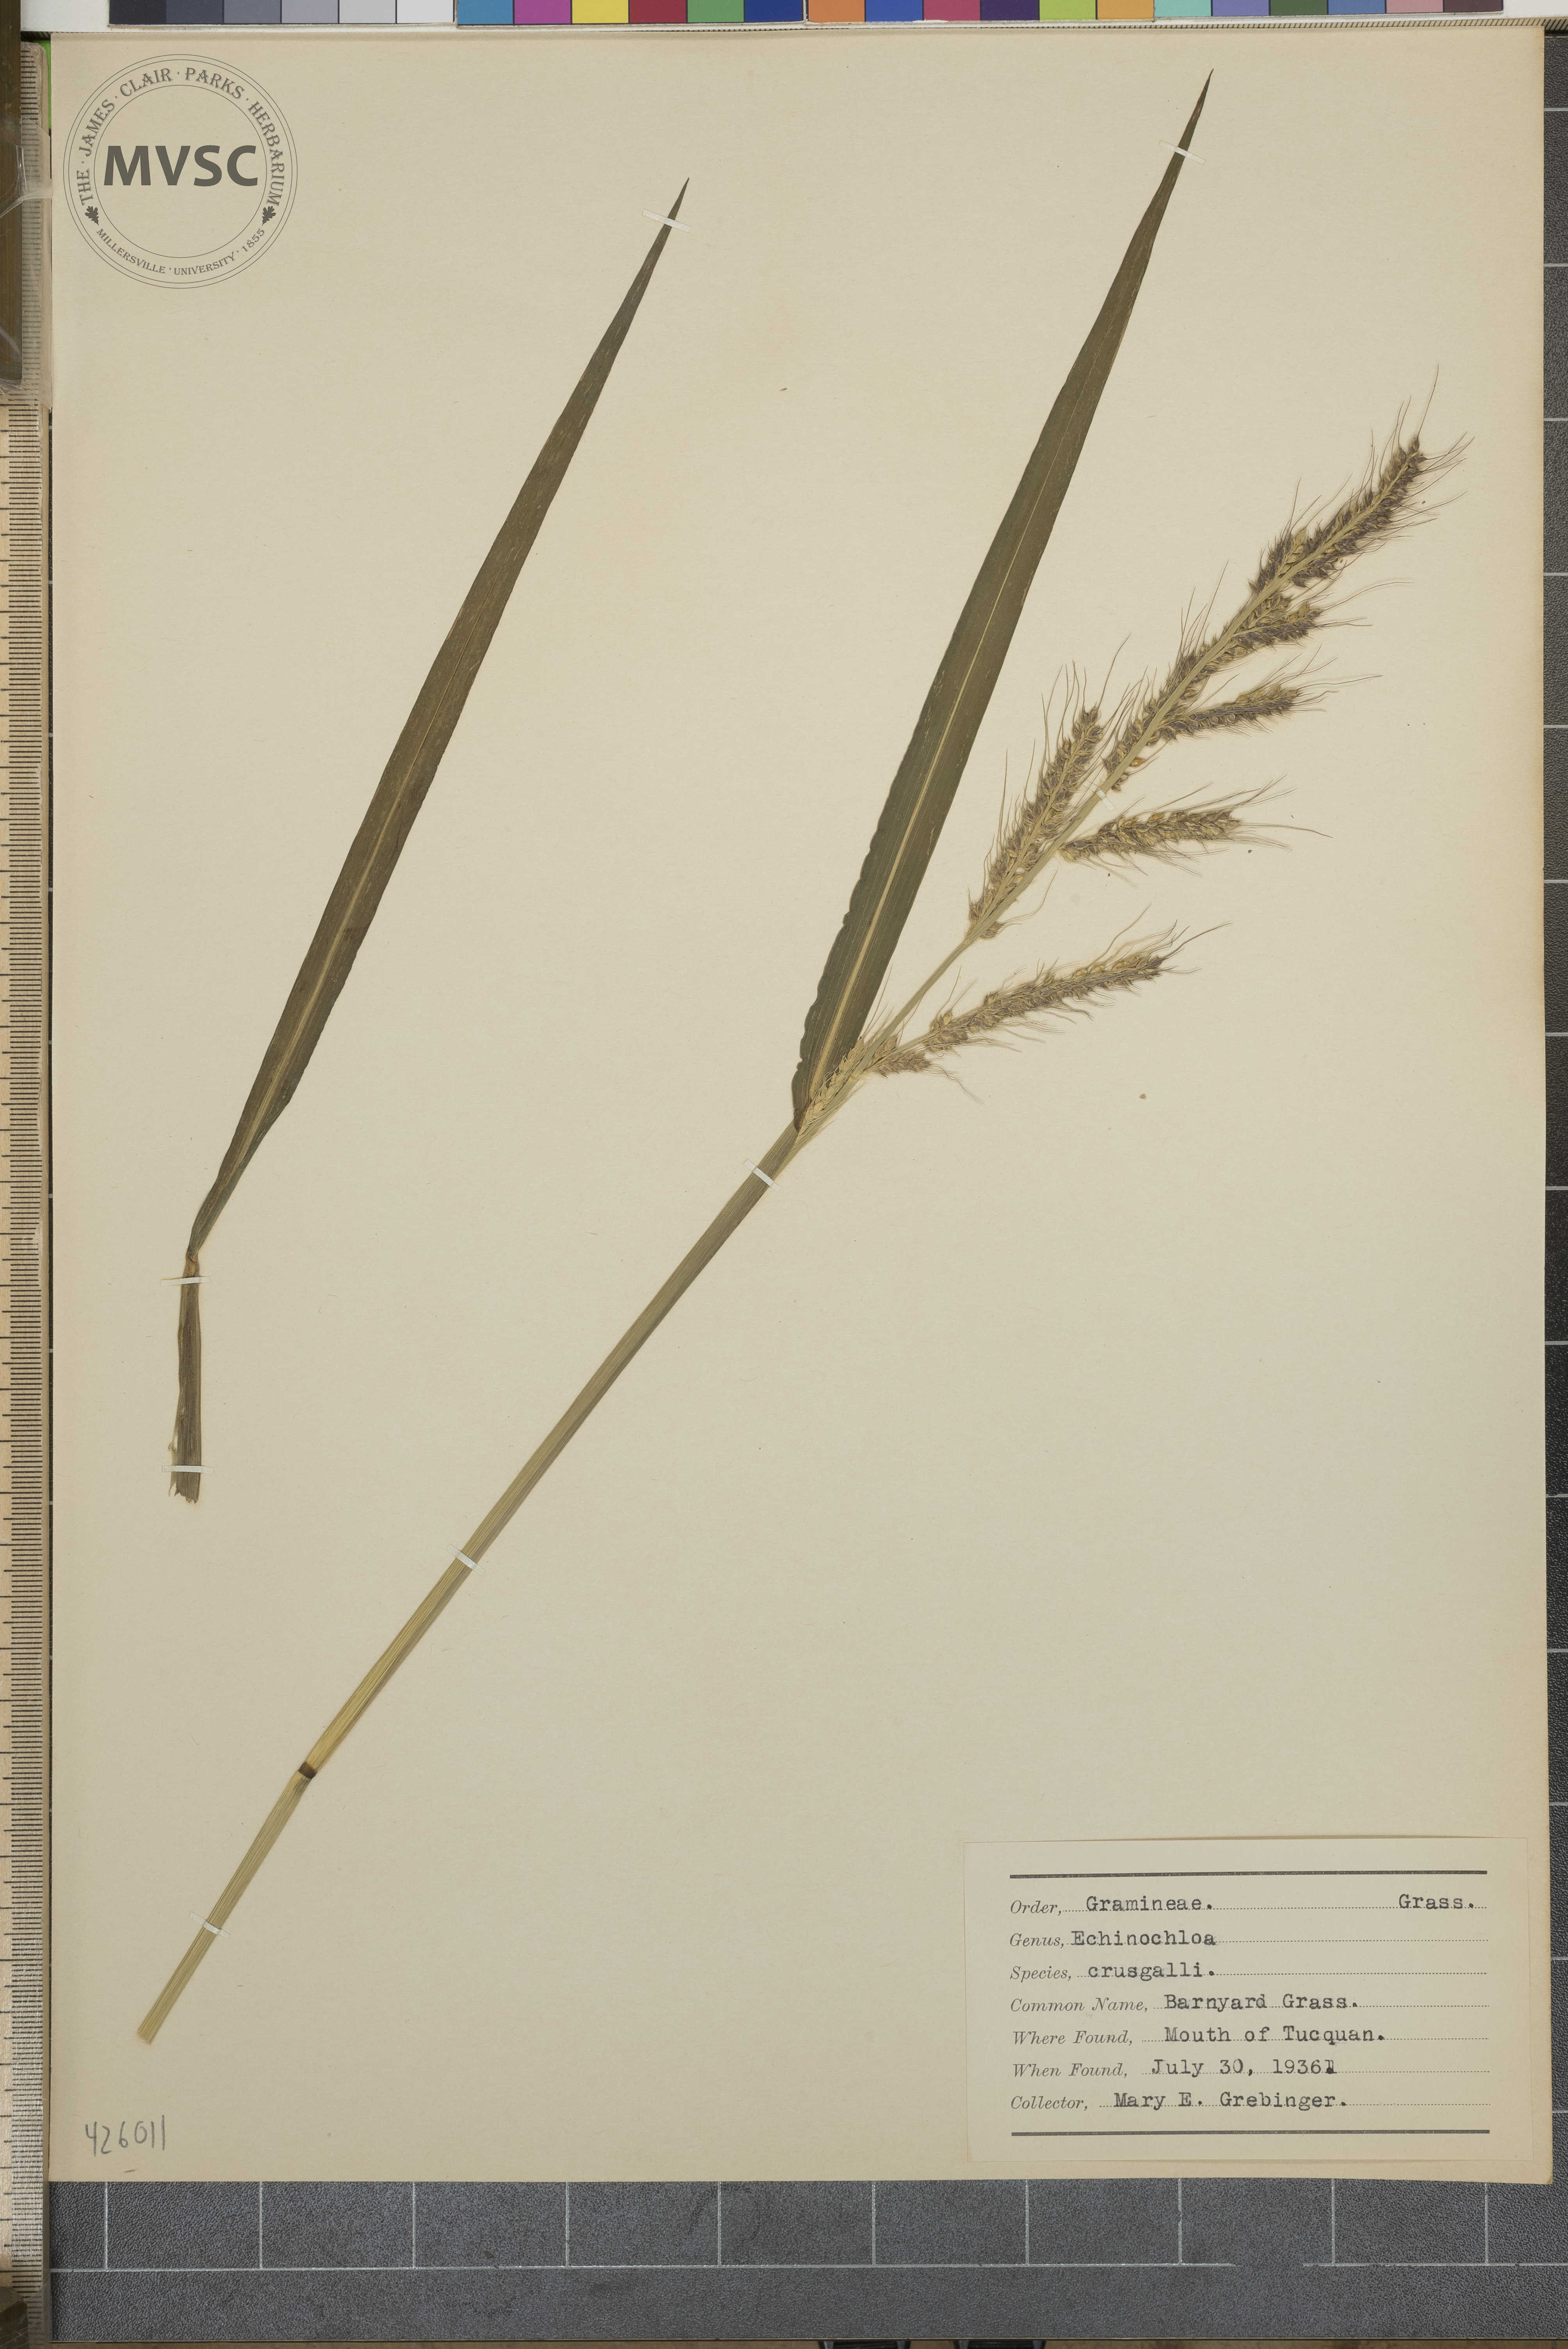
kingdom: Plantae
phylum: Tracheophyta
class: Liliopsida
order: Poales
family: Poaceae
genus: Echinochloa
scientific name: Echinochloa
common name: Barnyard grass
